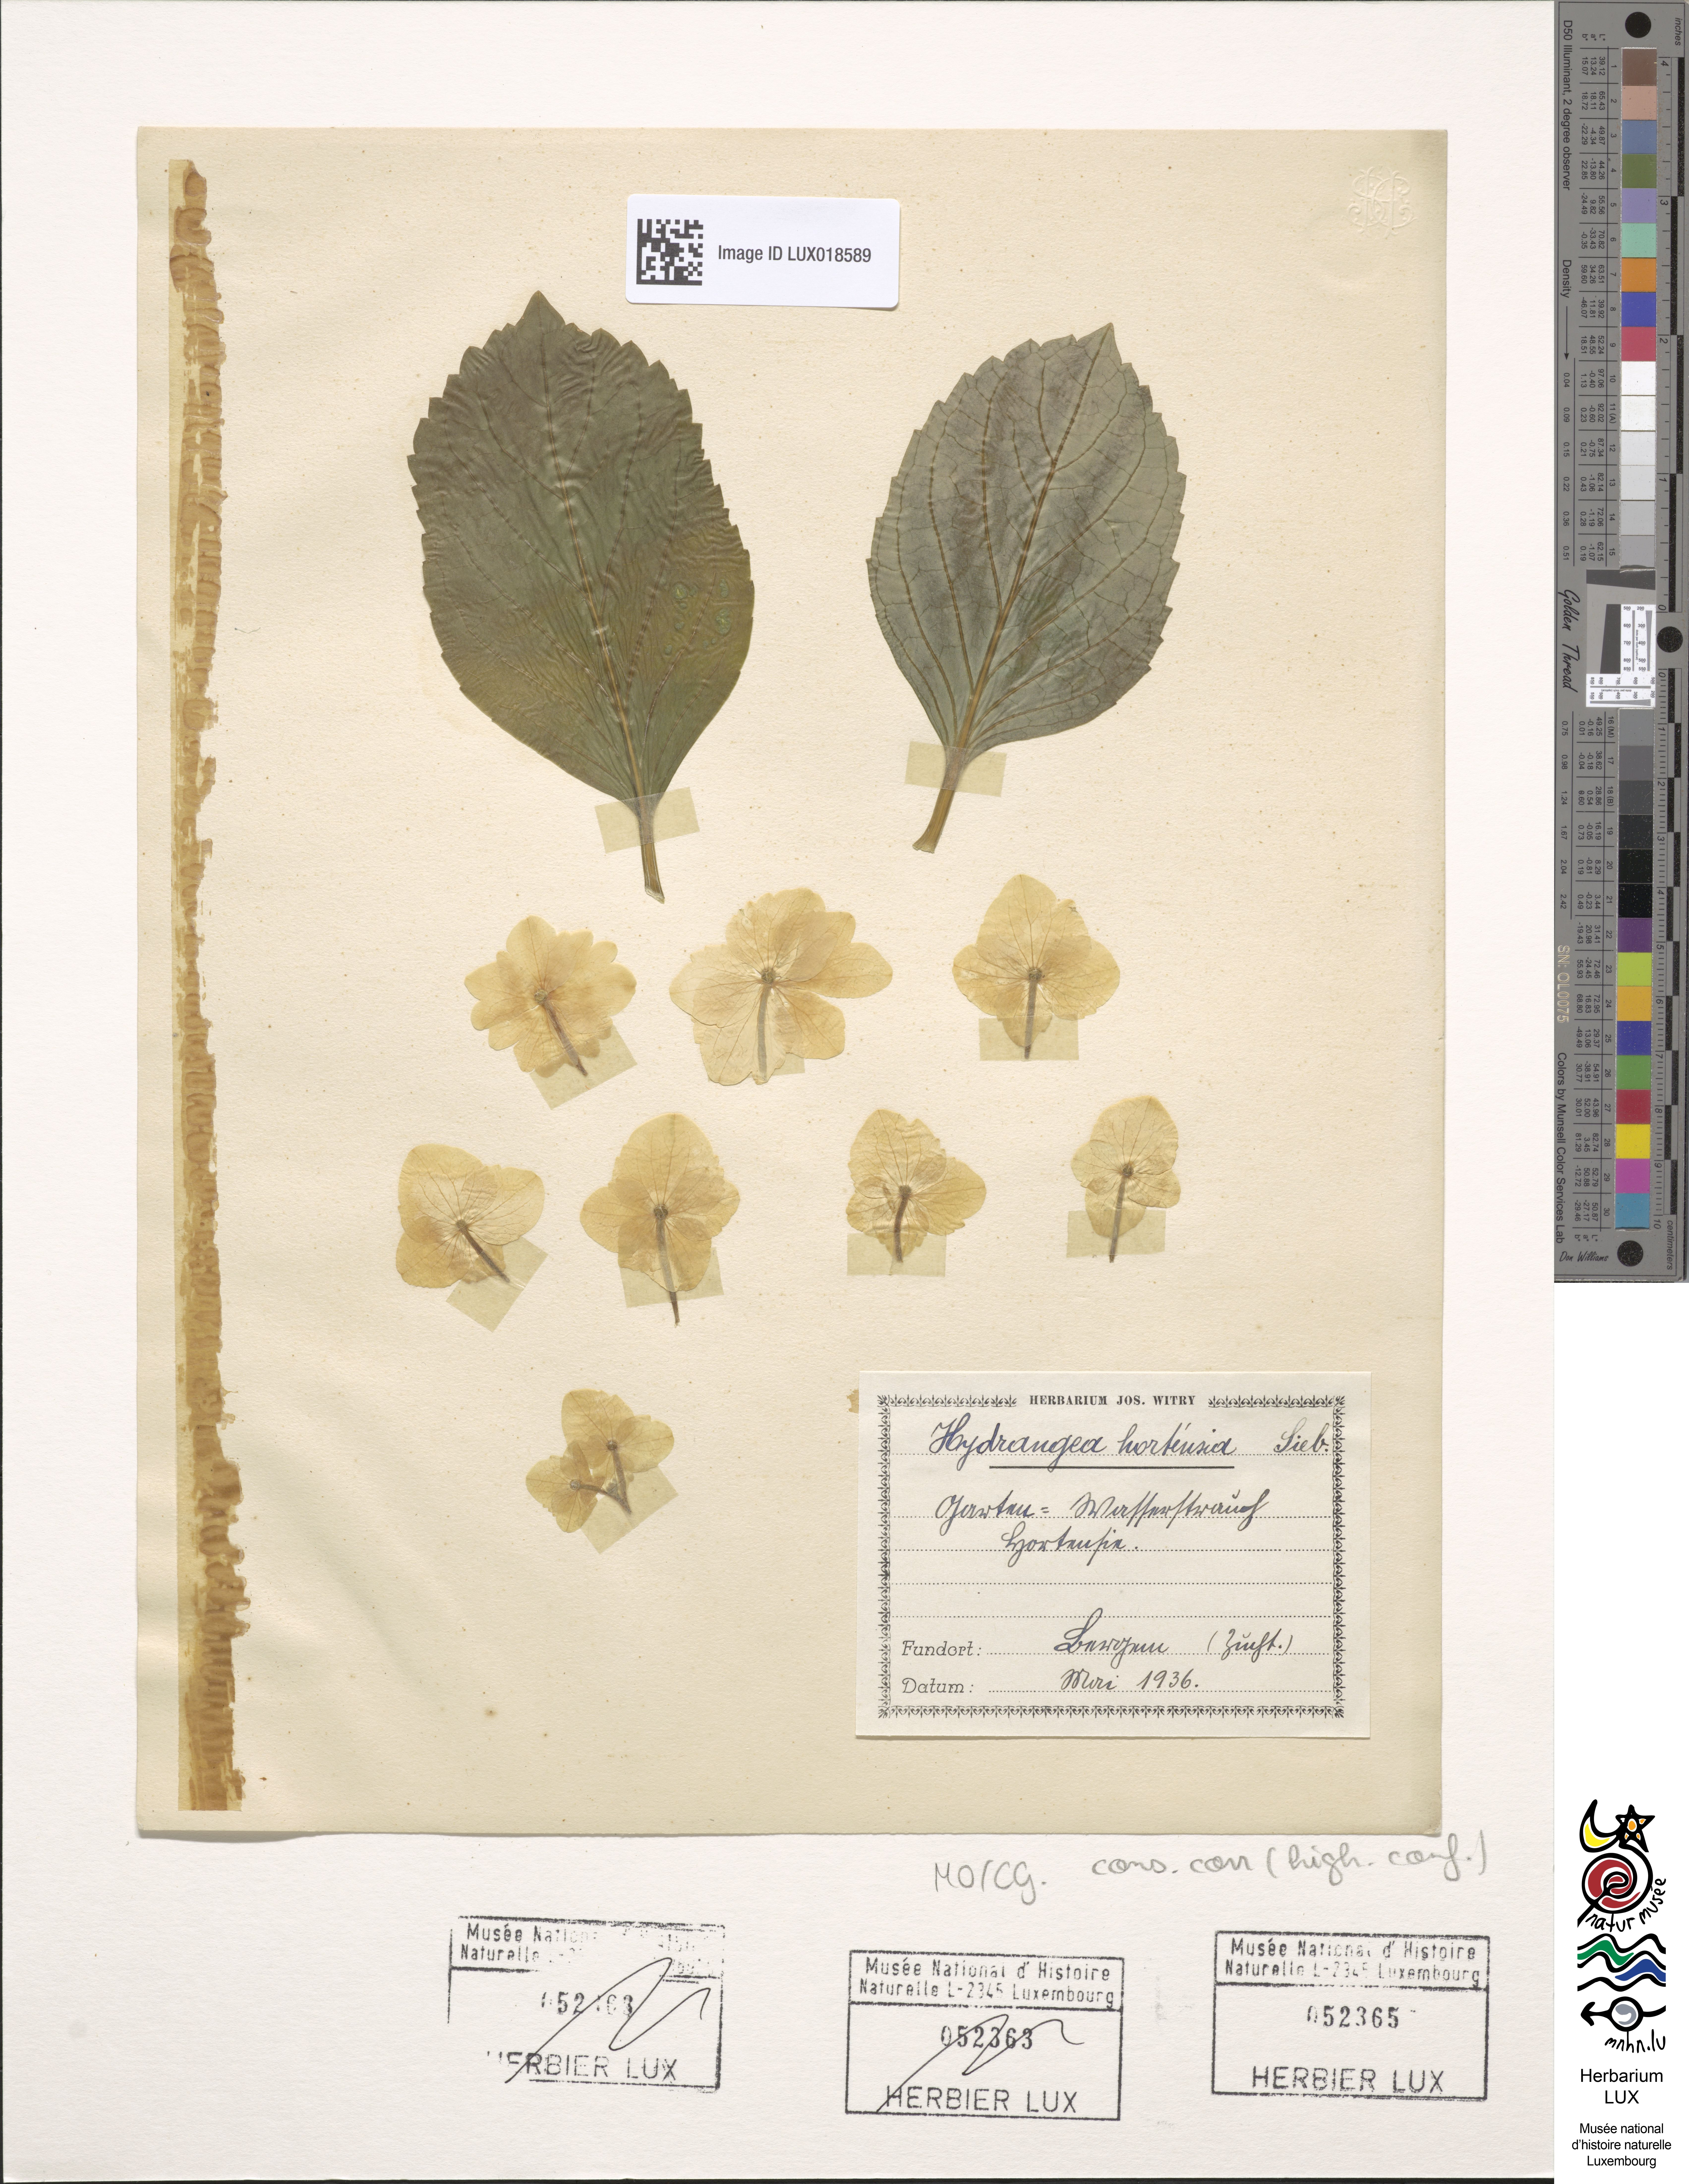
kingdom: Plantae
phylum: Tracheophyta
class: Magnoliopsida
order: Cornales
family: Hydrangeaceae
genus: Hydrangea
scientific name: Hydrangea
